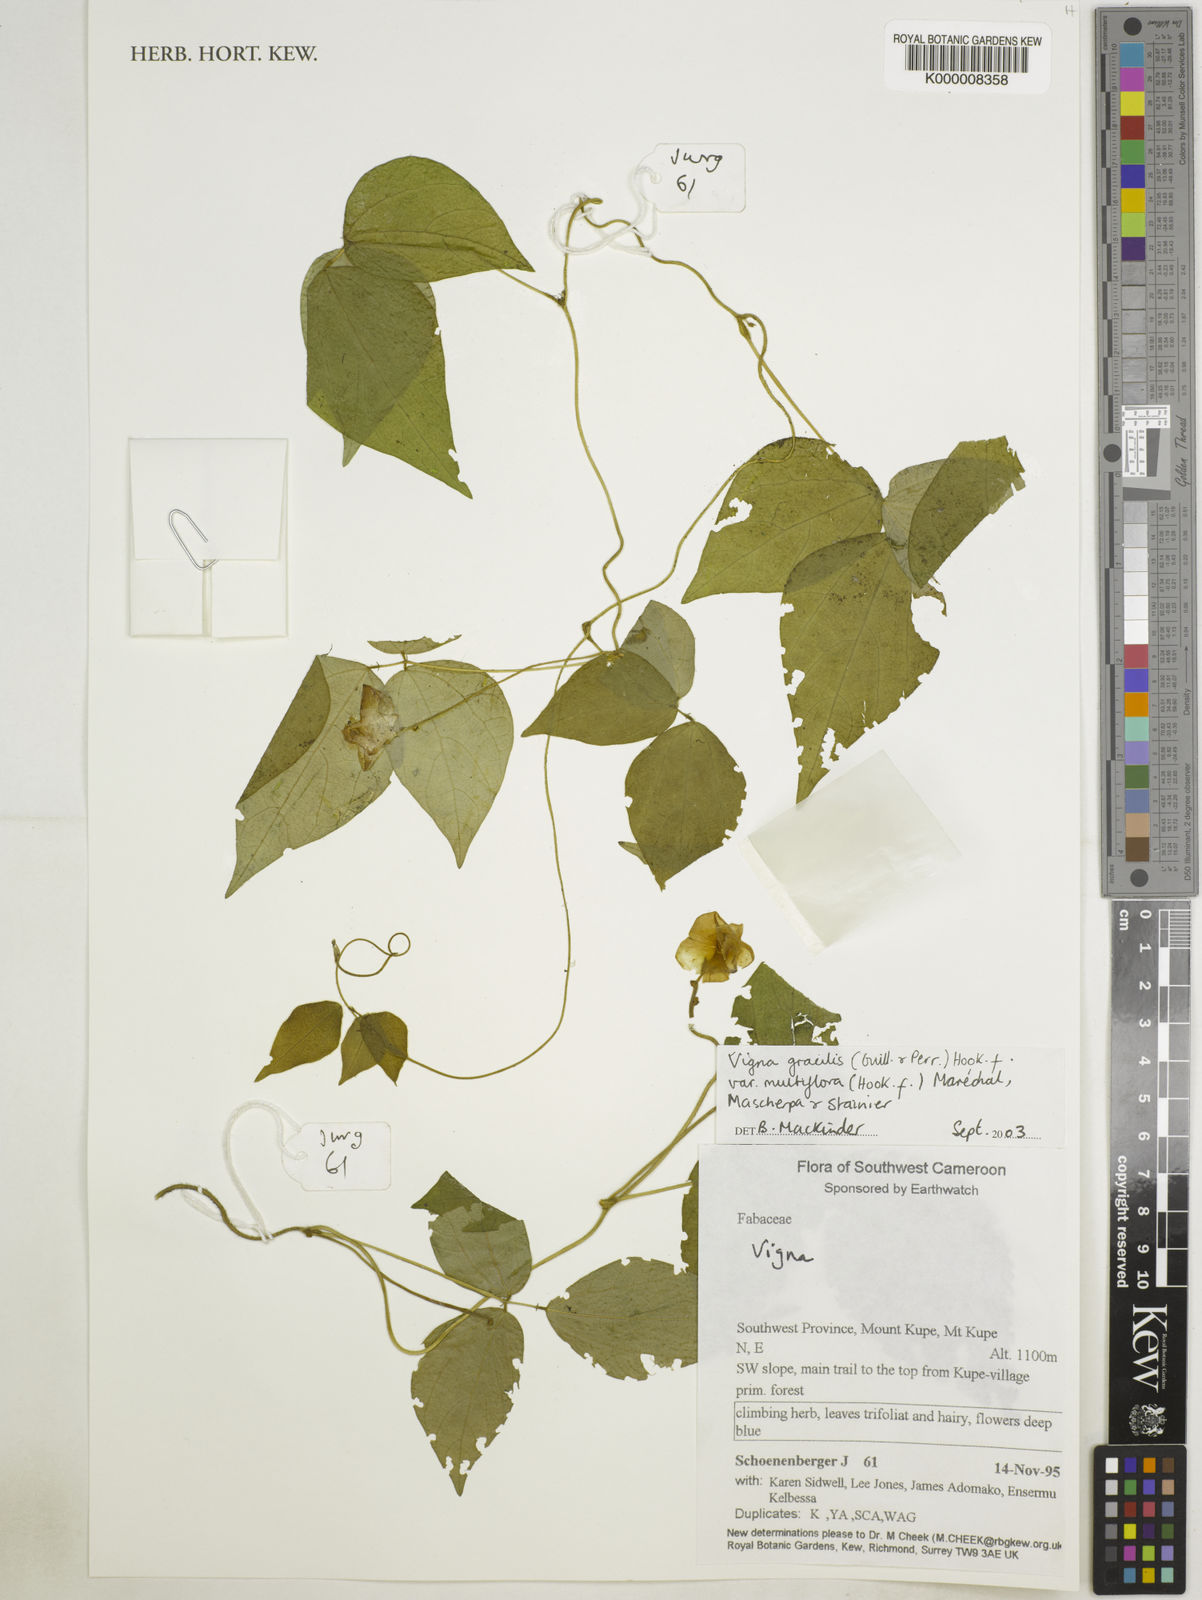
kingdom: Plantae
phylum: Tracheophyta
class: Magnoliopsida
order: Fabales
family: Fabaceae
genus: Vigna
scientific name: Vigna gracilis
